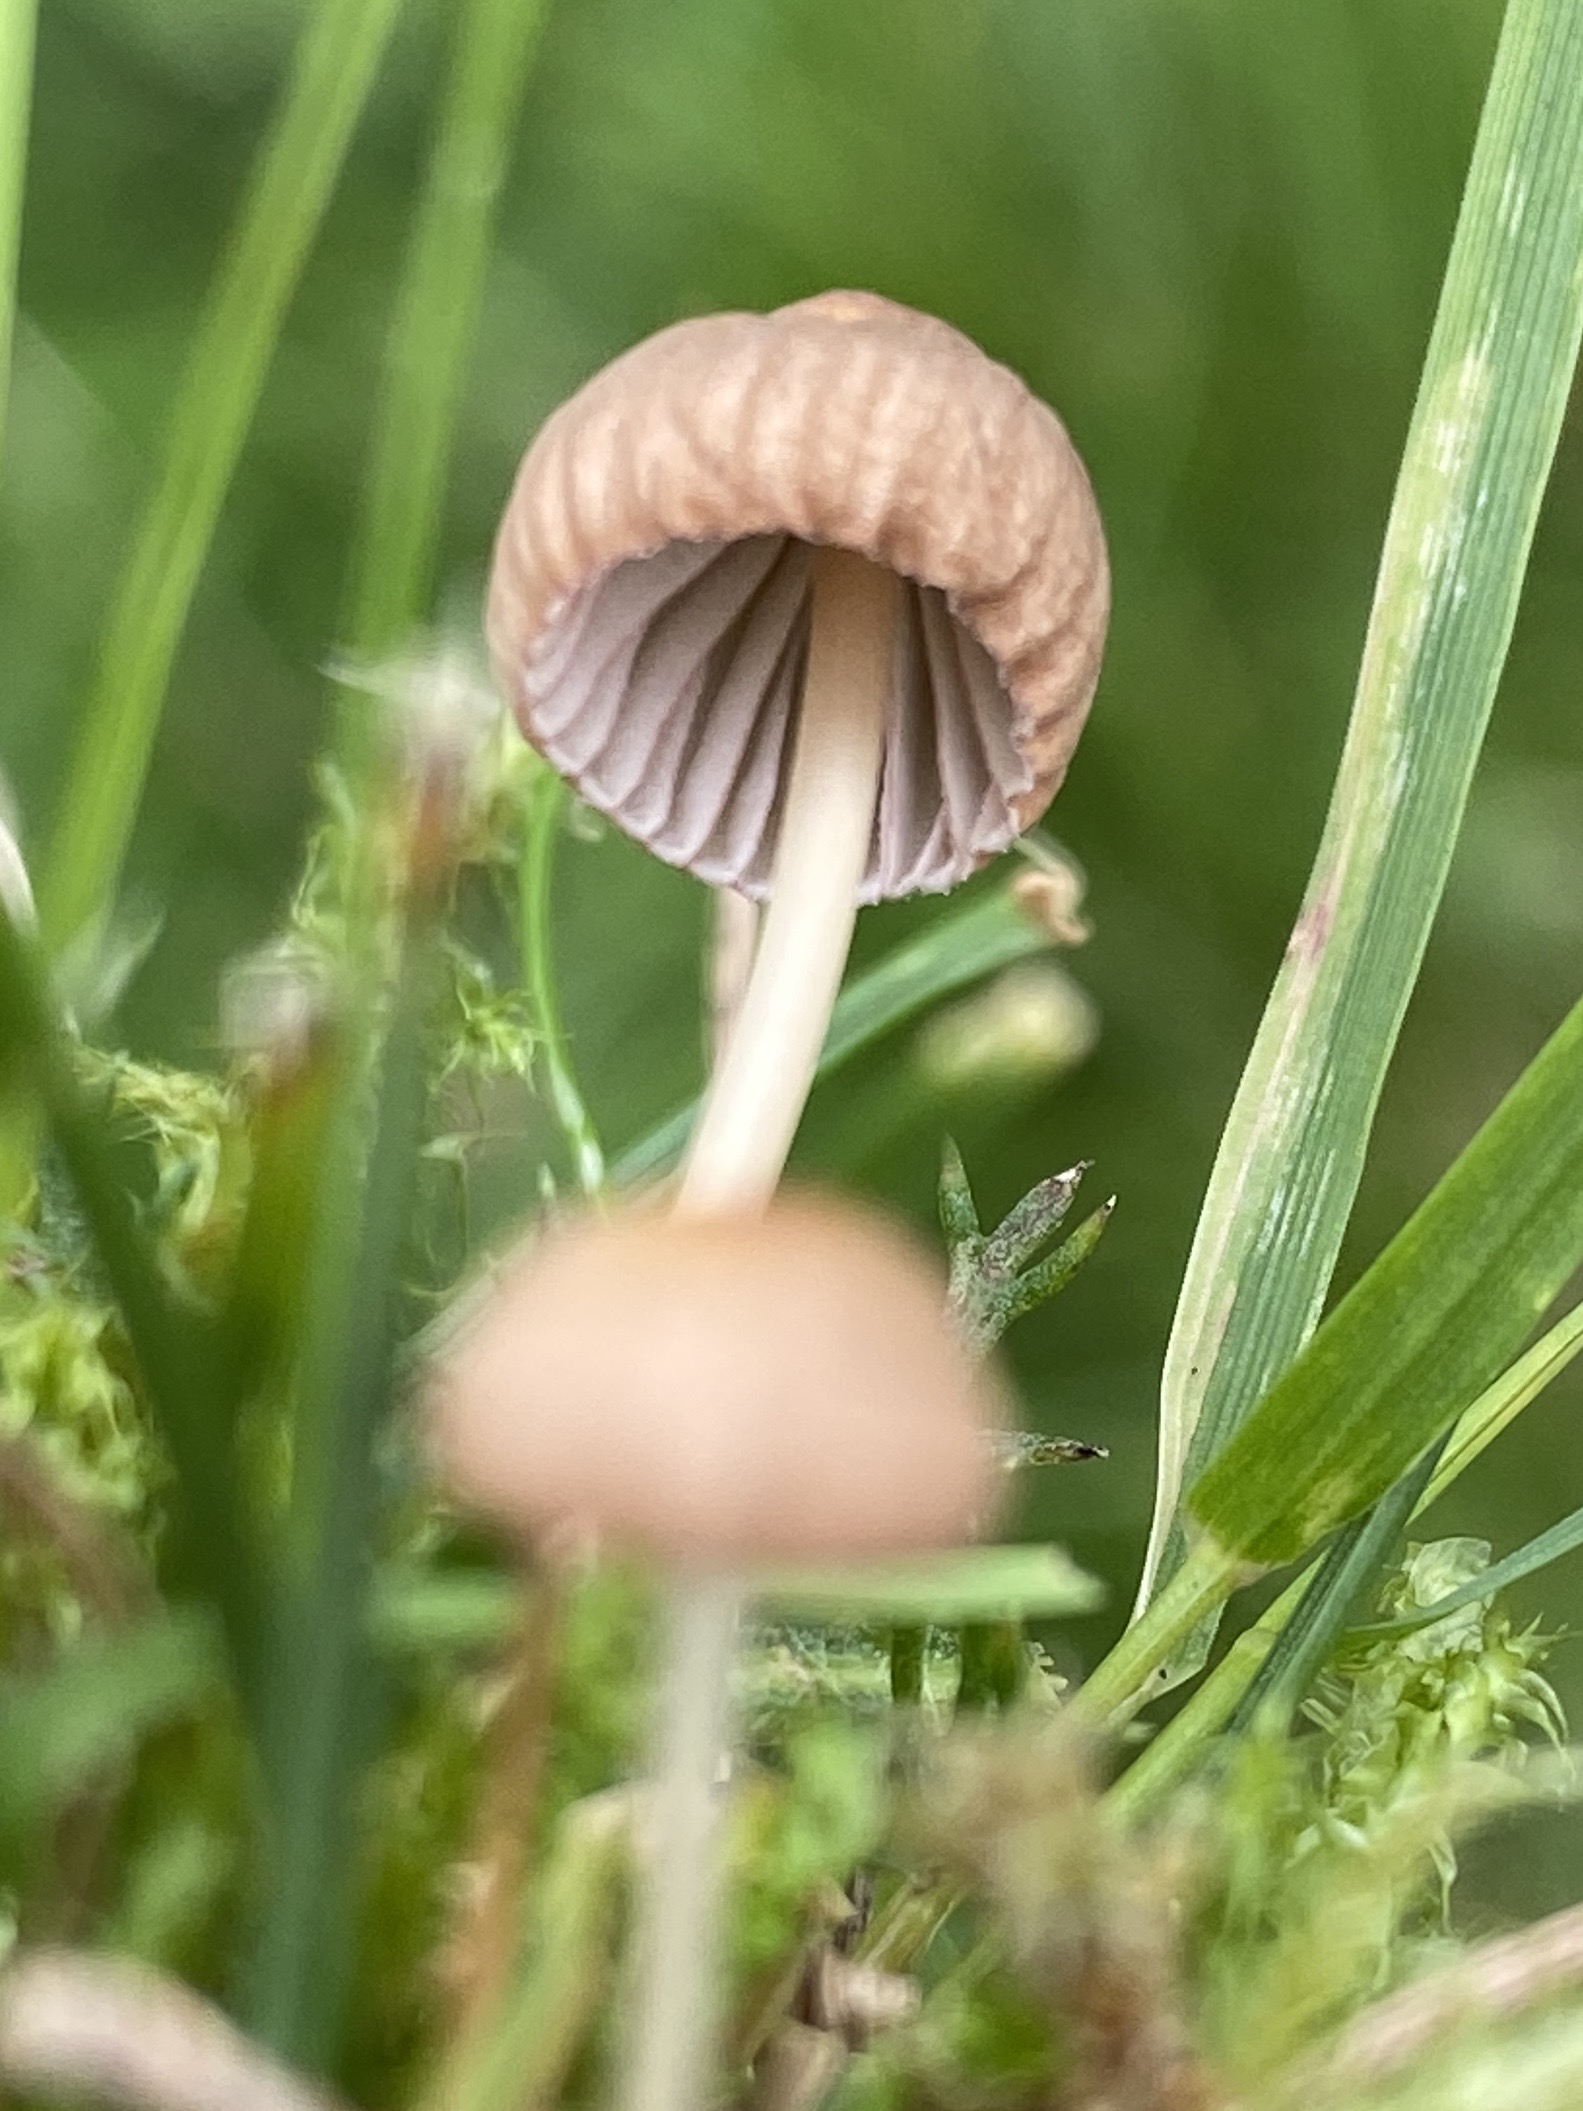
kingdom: Fungi
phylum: Basidiomycota
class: Agaricomycetes
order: Agaricales
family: Mycenaceae
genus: Mycena
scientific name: Mycena olivaceomarginata
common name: brunægget huesvamp
